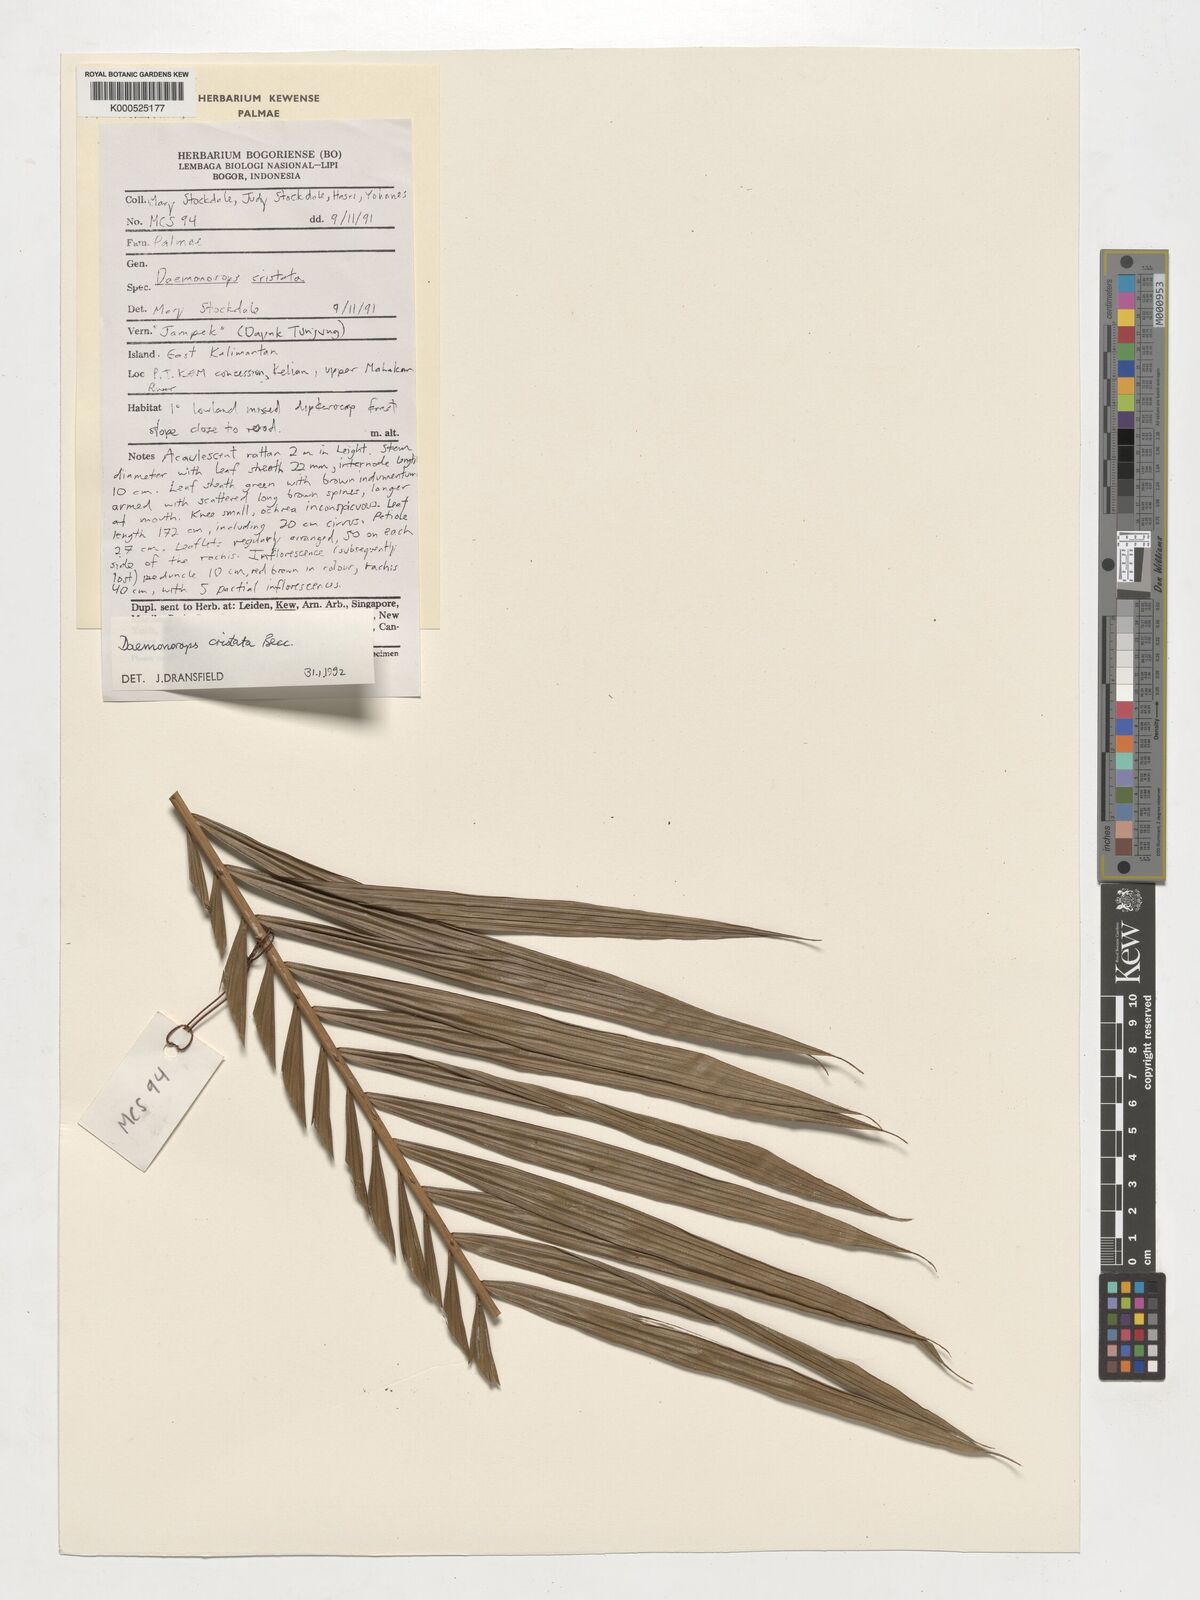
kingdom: Plantae
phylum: Tracheophyta
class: Liliopsida
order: Arecales
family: Arecaceae
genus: Calamus
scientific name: Calamus cristatus
